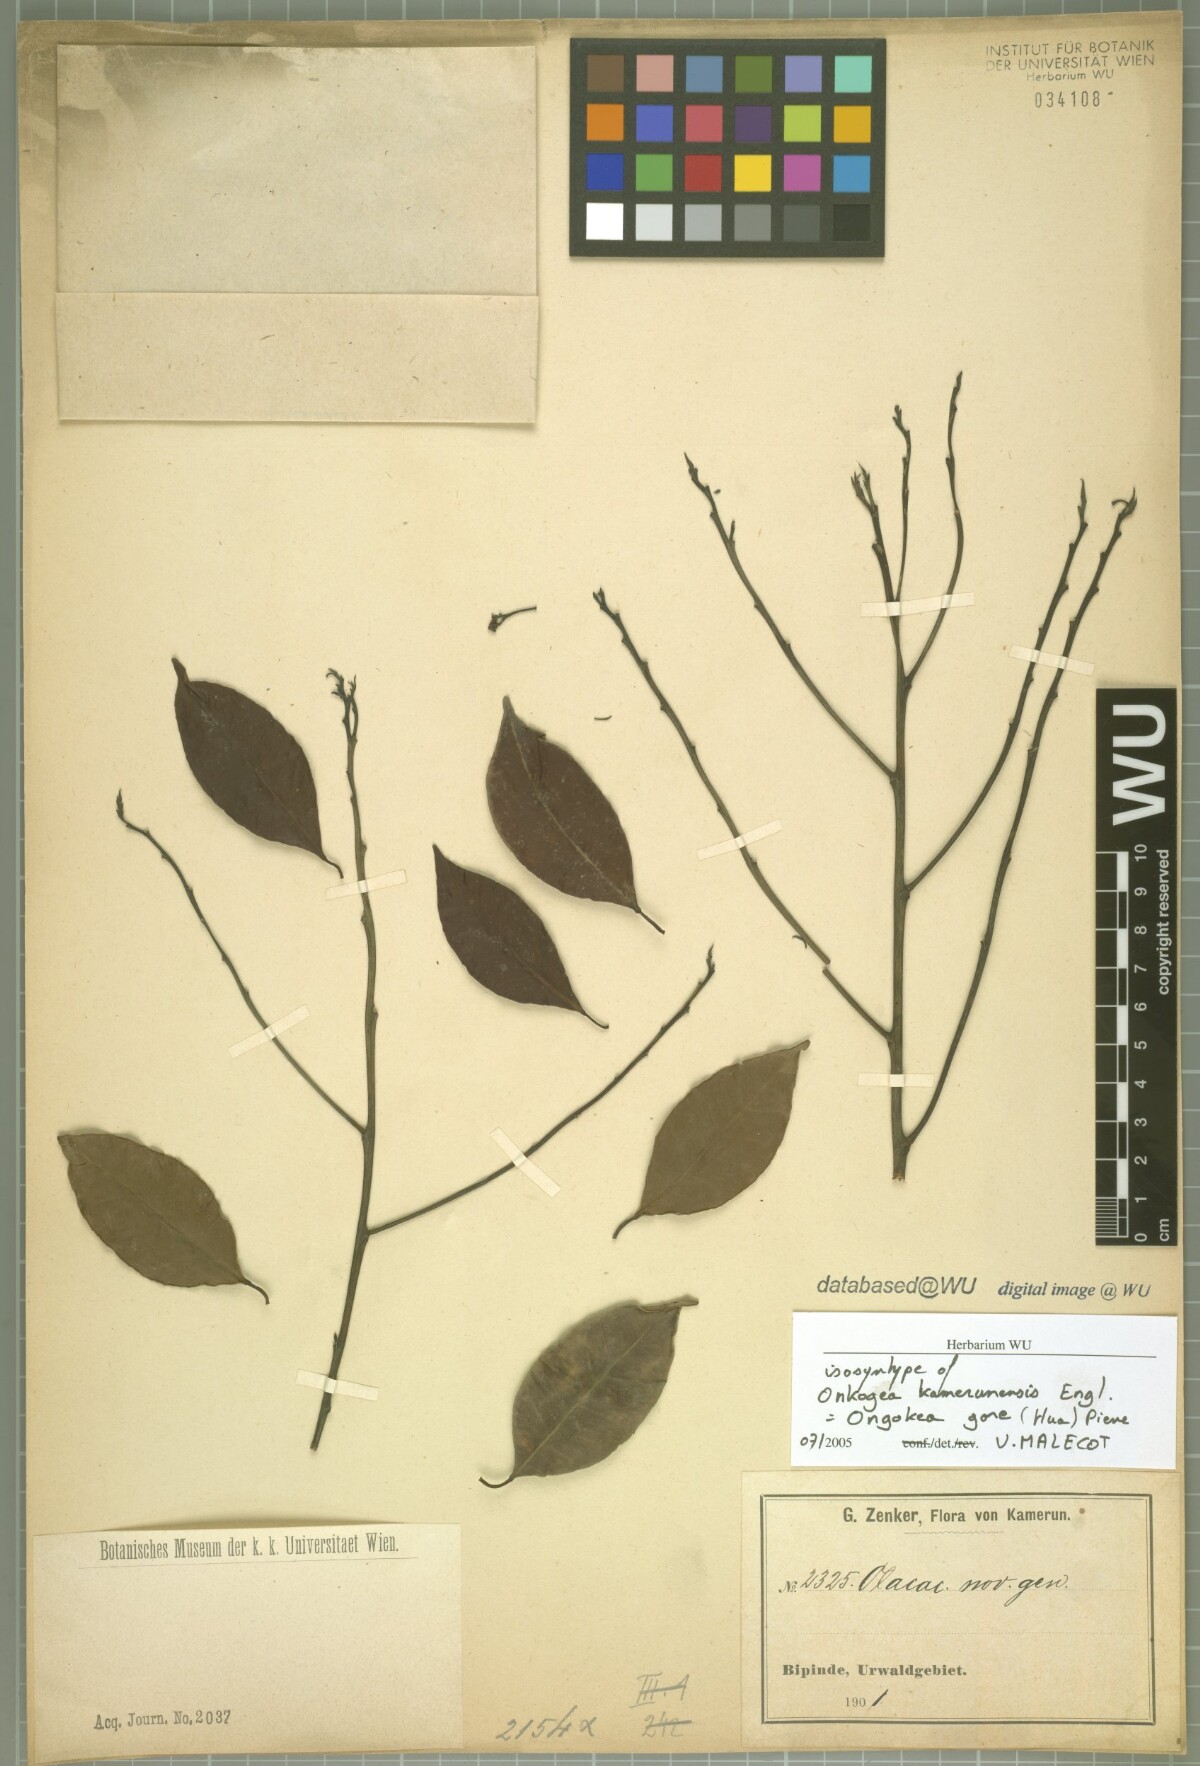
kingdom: Plantae
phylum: Tracheophyta
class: Magnoliopsida
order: Santalales
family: Aptandraceae
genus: Ongokea
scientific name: Ongokea gore
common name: Boleko-nut
